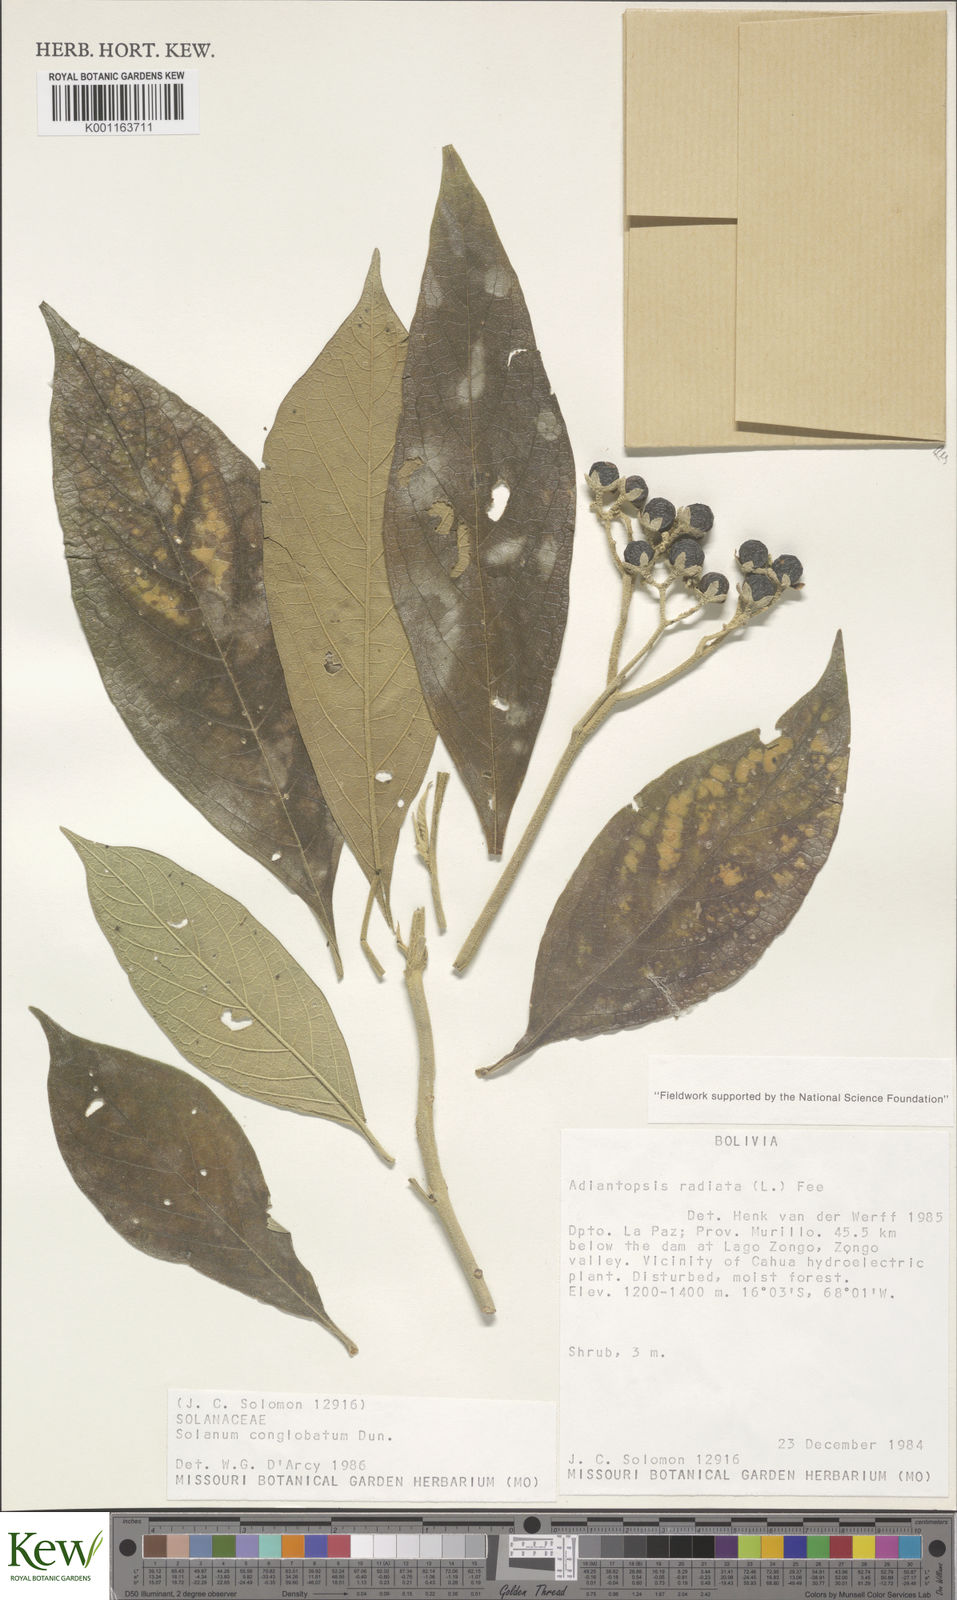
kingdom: Plantae
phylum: Tracheophyta
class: Magnoliopsida
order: Solanales
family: Solanaceae
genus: Solanum
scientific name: Solanum conglobatum
